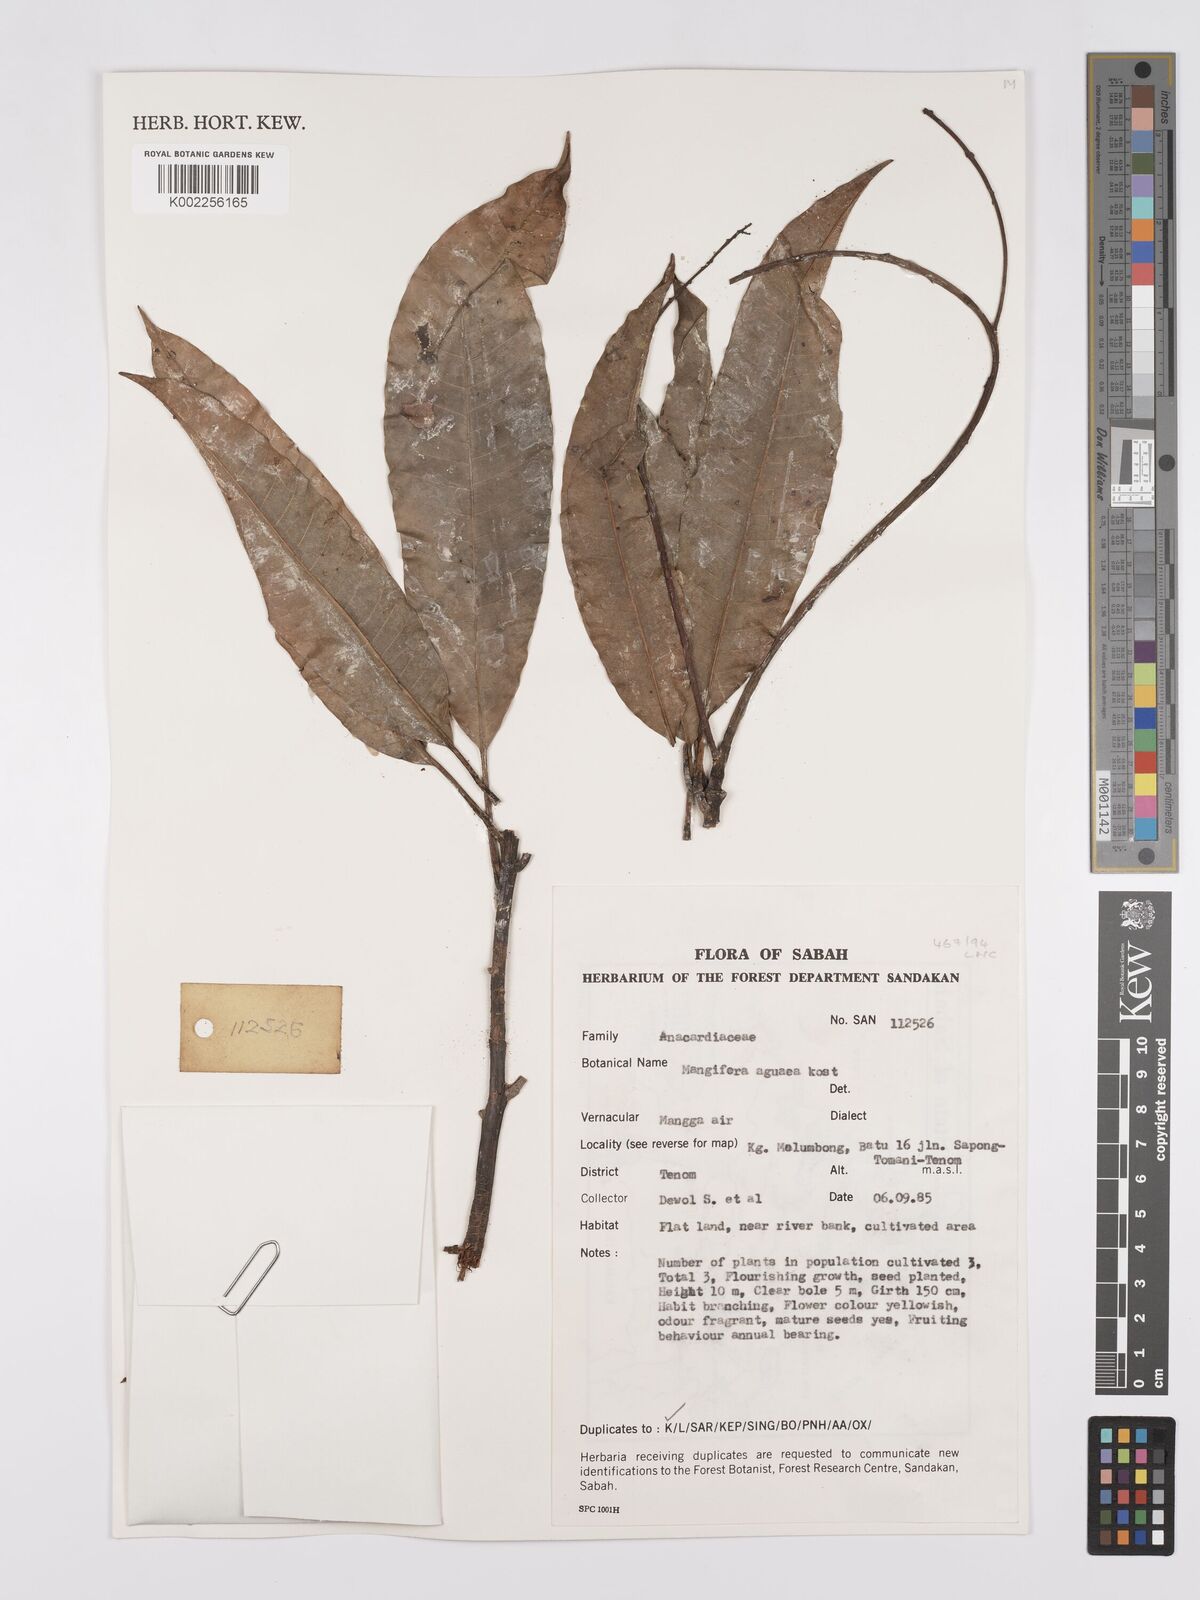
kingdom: Plantae
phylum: Tracheophyta
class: Magnoliopsida
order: Sapindales
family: Anacardiaceae
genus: Mangifera
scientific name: Mangifera laurina
